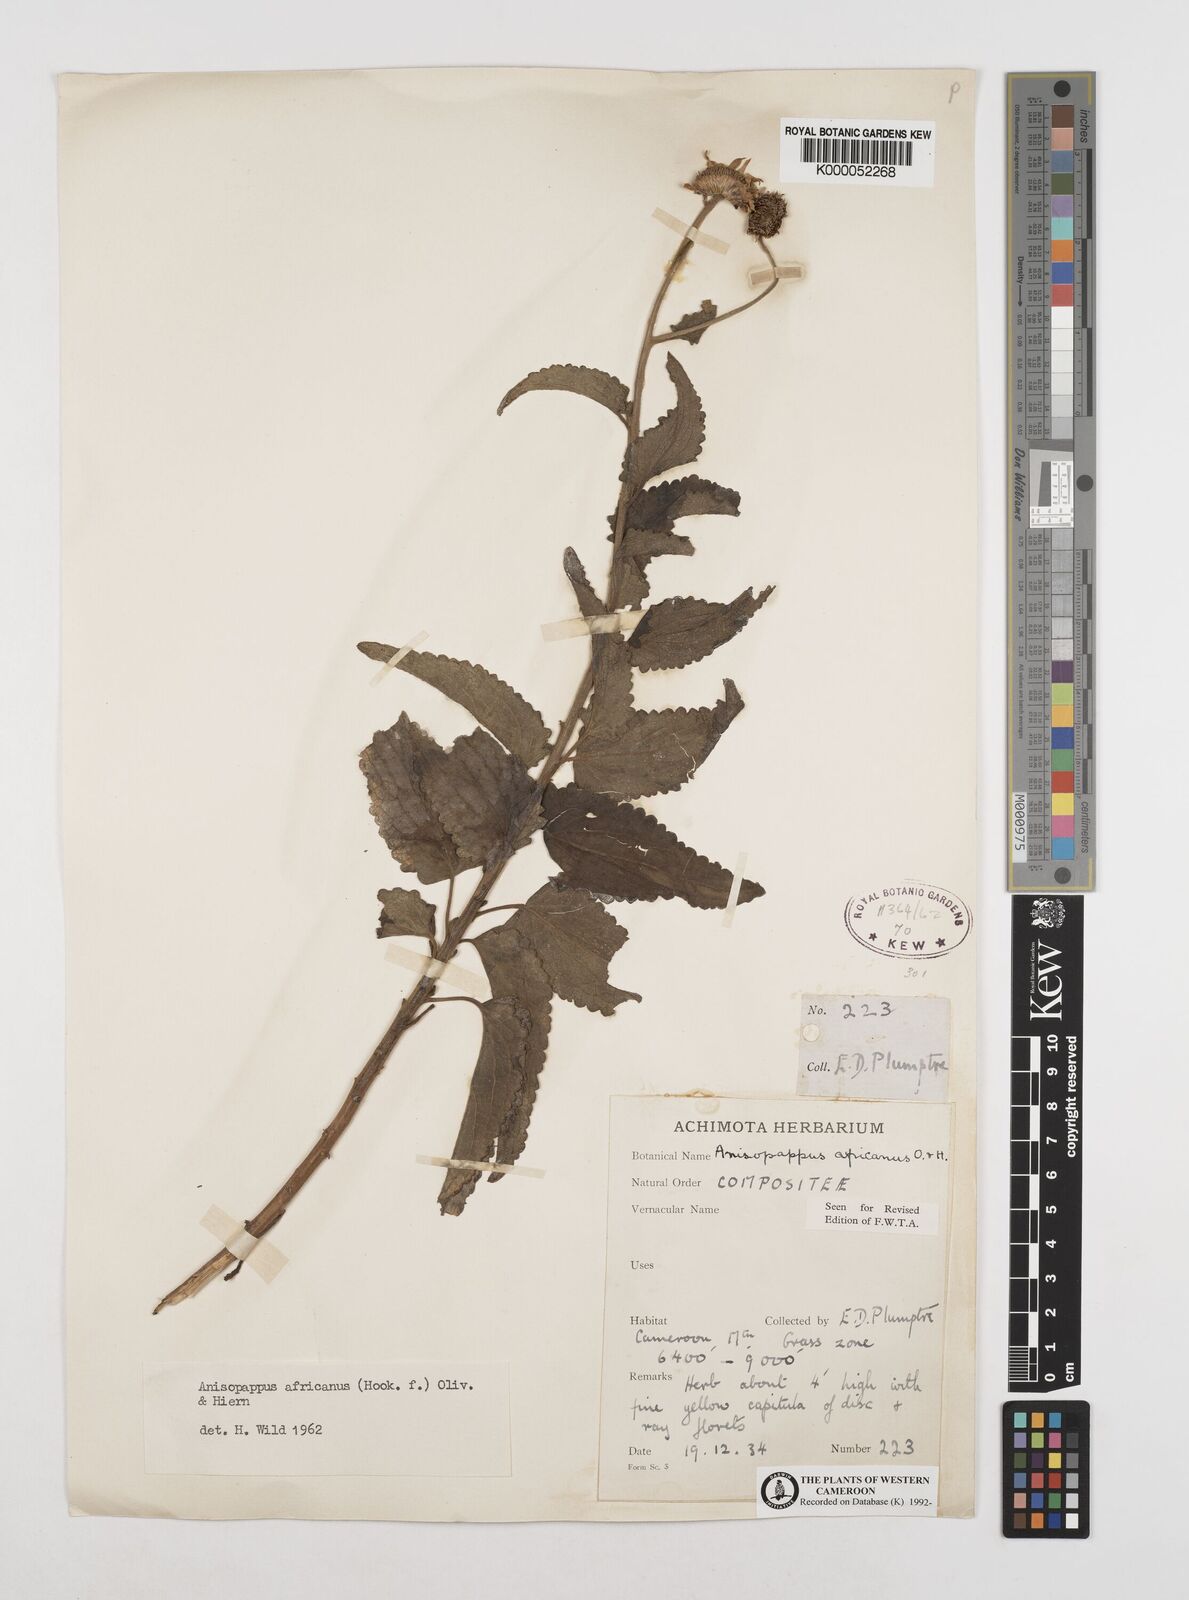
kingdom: Plantae
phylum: Tracheophyta
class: Magnoliopsida
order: Asterales
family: Asteraceae
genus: Anisopappus
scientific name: Anisopappus chinensis
